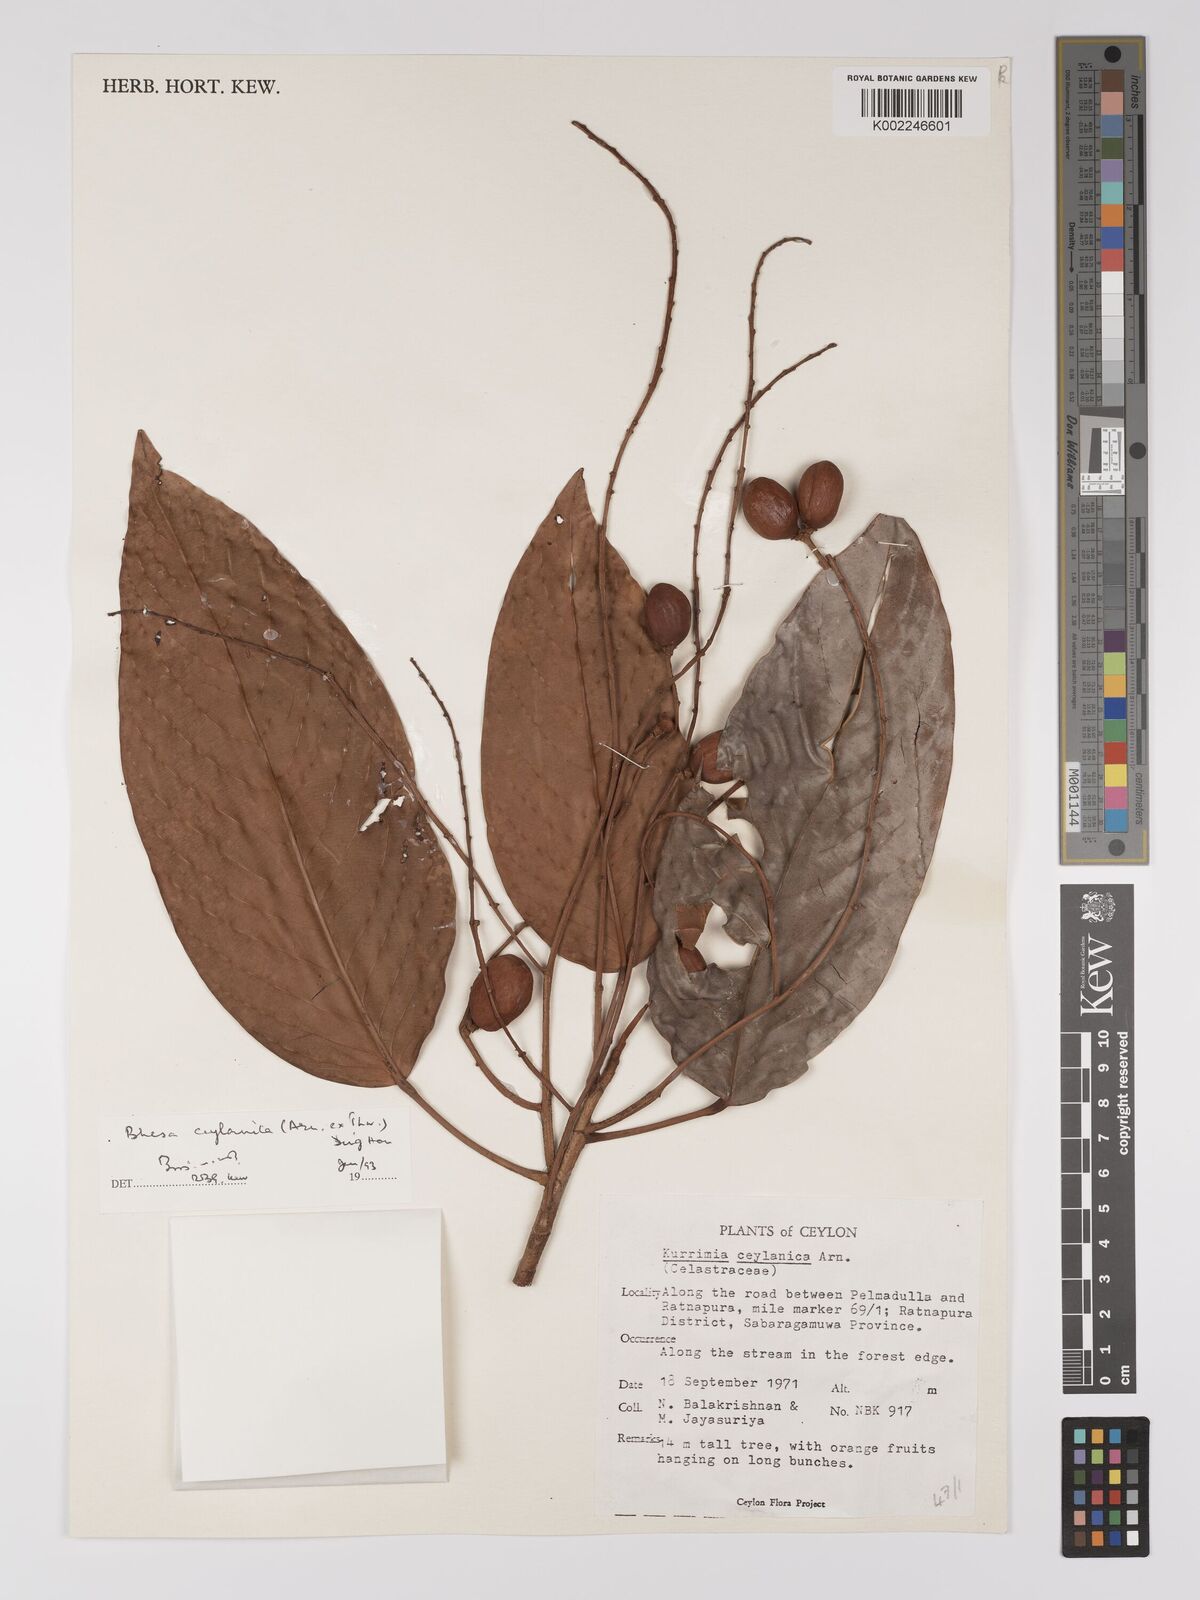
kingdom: Plantae
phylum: Tracheophyta
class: Magnoliopsida
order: Malpighiales
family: Centroplacaceae
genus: Bhesa
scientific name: Bhesa ceylanica
